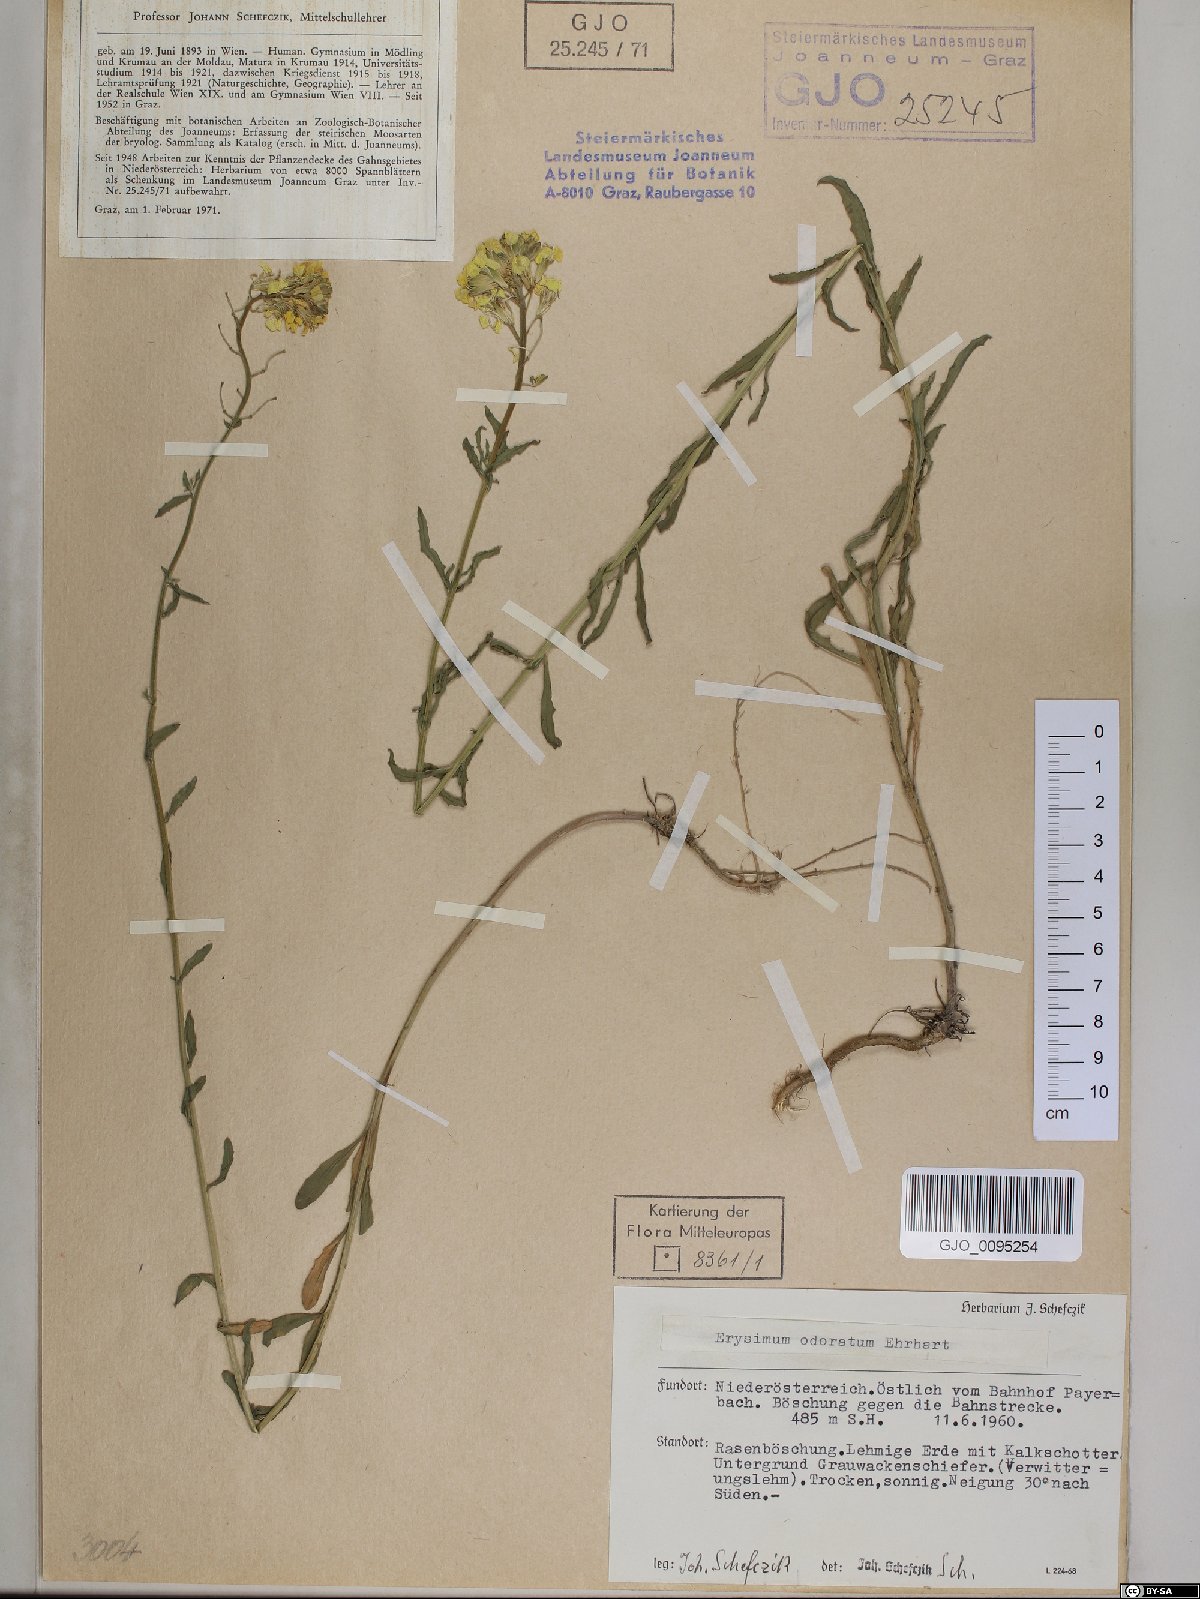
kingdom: Plantae
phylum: Tracheophyta
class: Magnoliopsida
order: Brassicales
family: Brassicaceae
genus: Erysimum
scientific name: Erysimum odoratum
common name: Smelly wallflower
